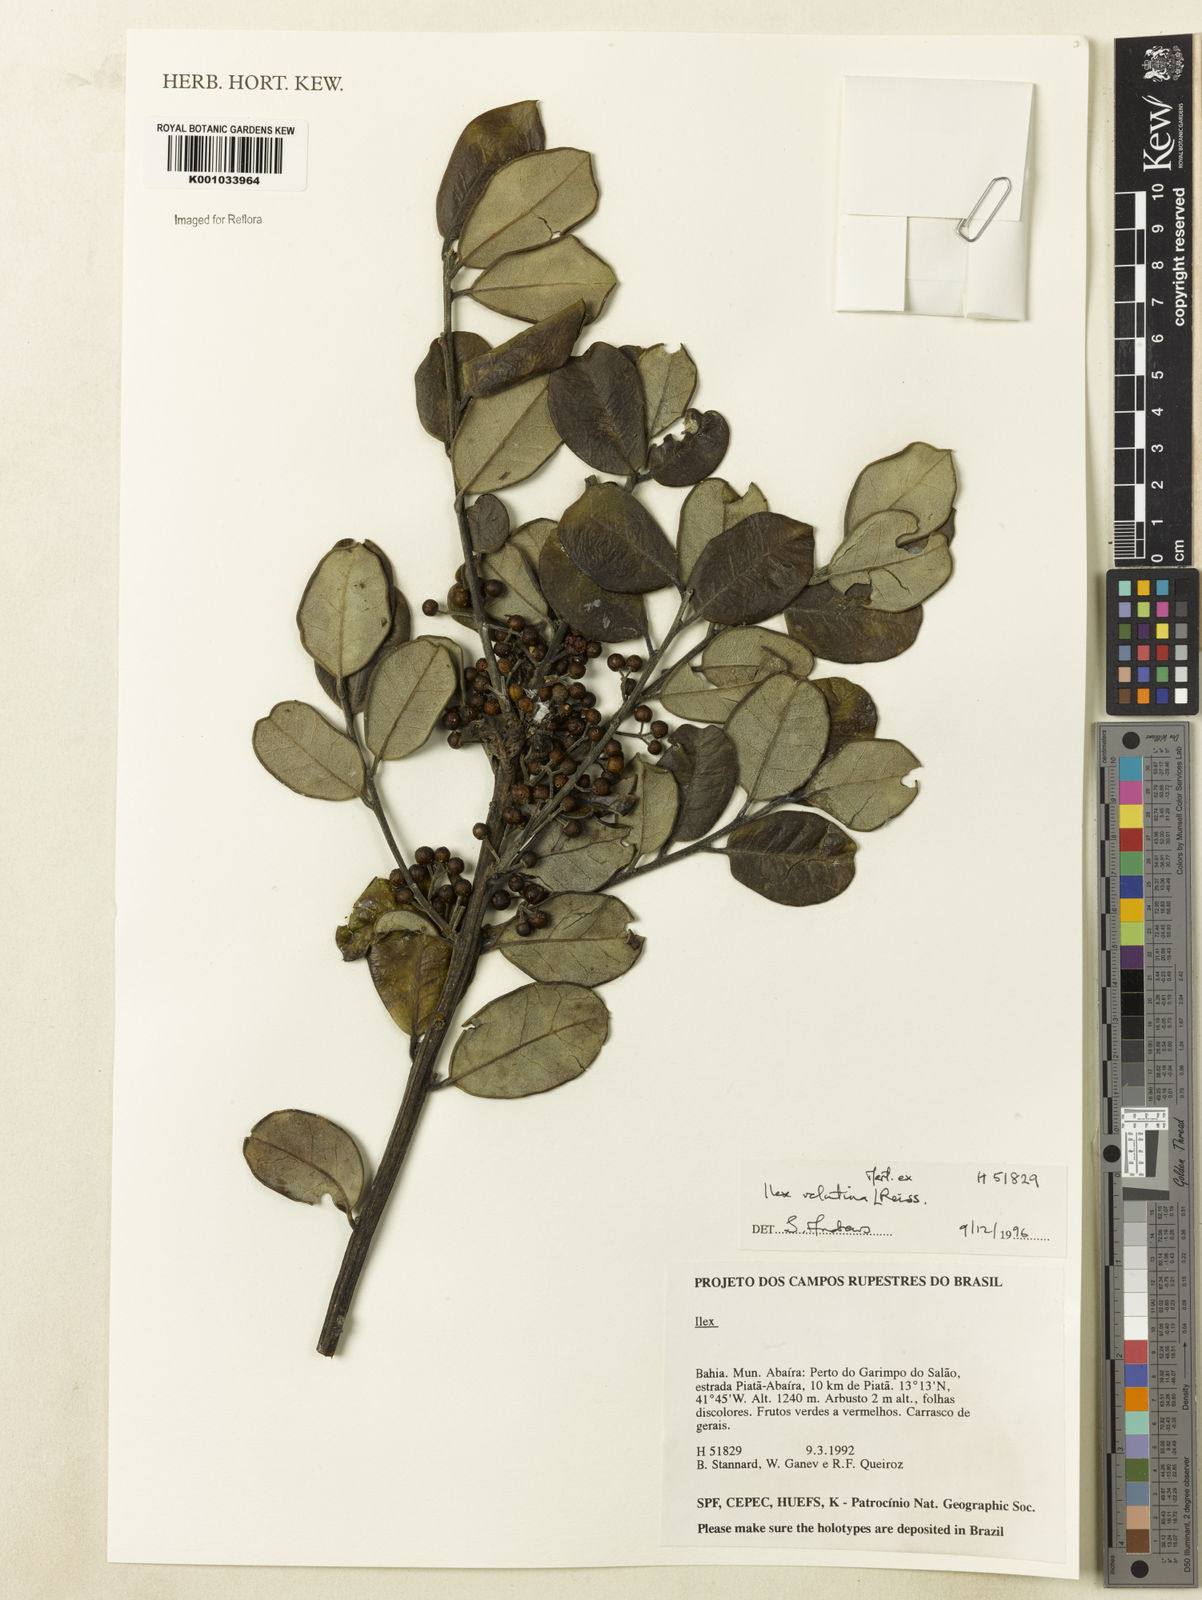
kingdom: Plantae
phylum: Tracheophyta
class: Magnoliopsida
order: Aquifoliales
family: Aquifoliaceae
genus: Ilex
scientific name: Ilex velutina
